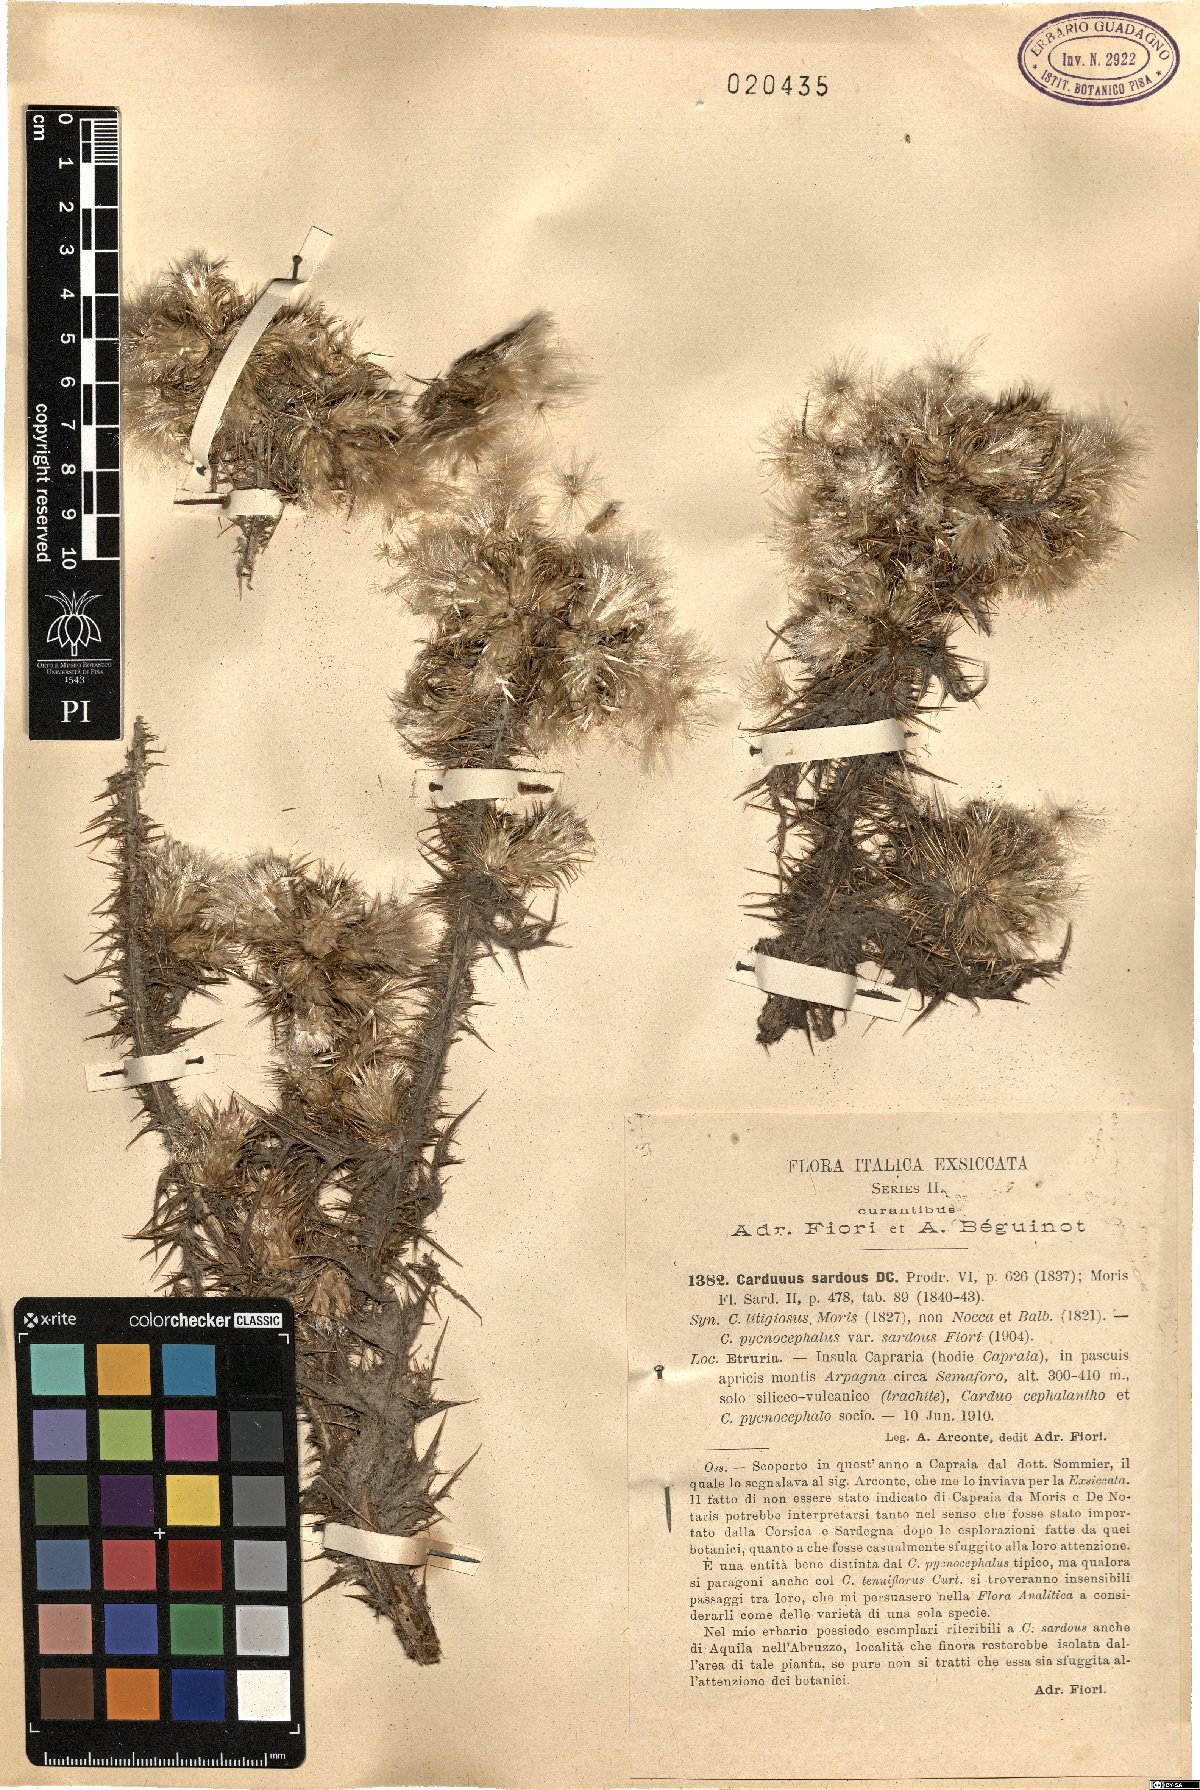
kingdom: Plantae
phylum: Tracheophyta
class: Magnoliopsida
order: Asterales
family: Asteraceae
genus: Carduus
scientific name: Carduus tenuiflorus
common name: Slender thistle
